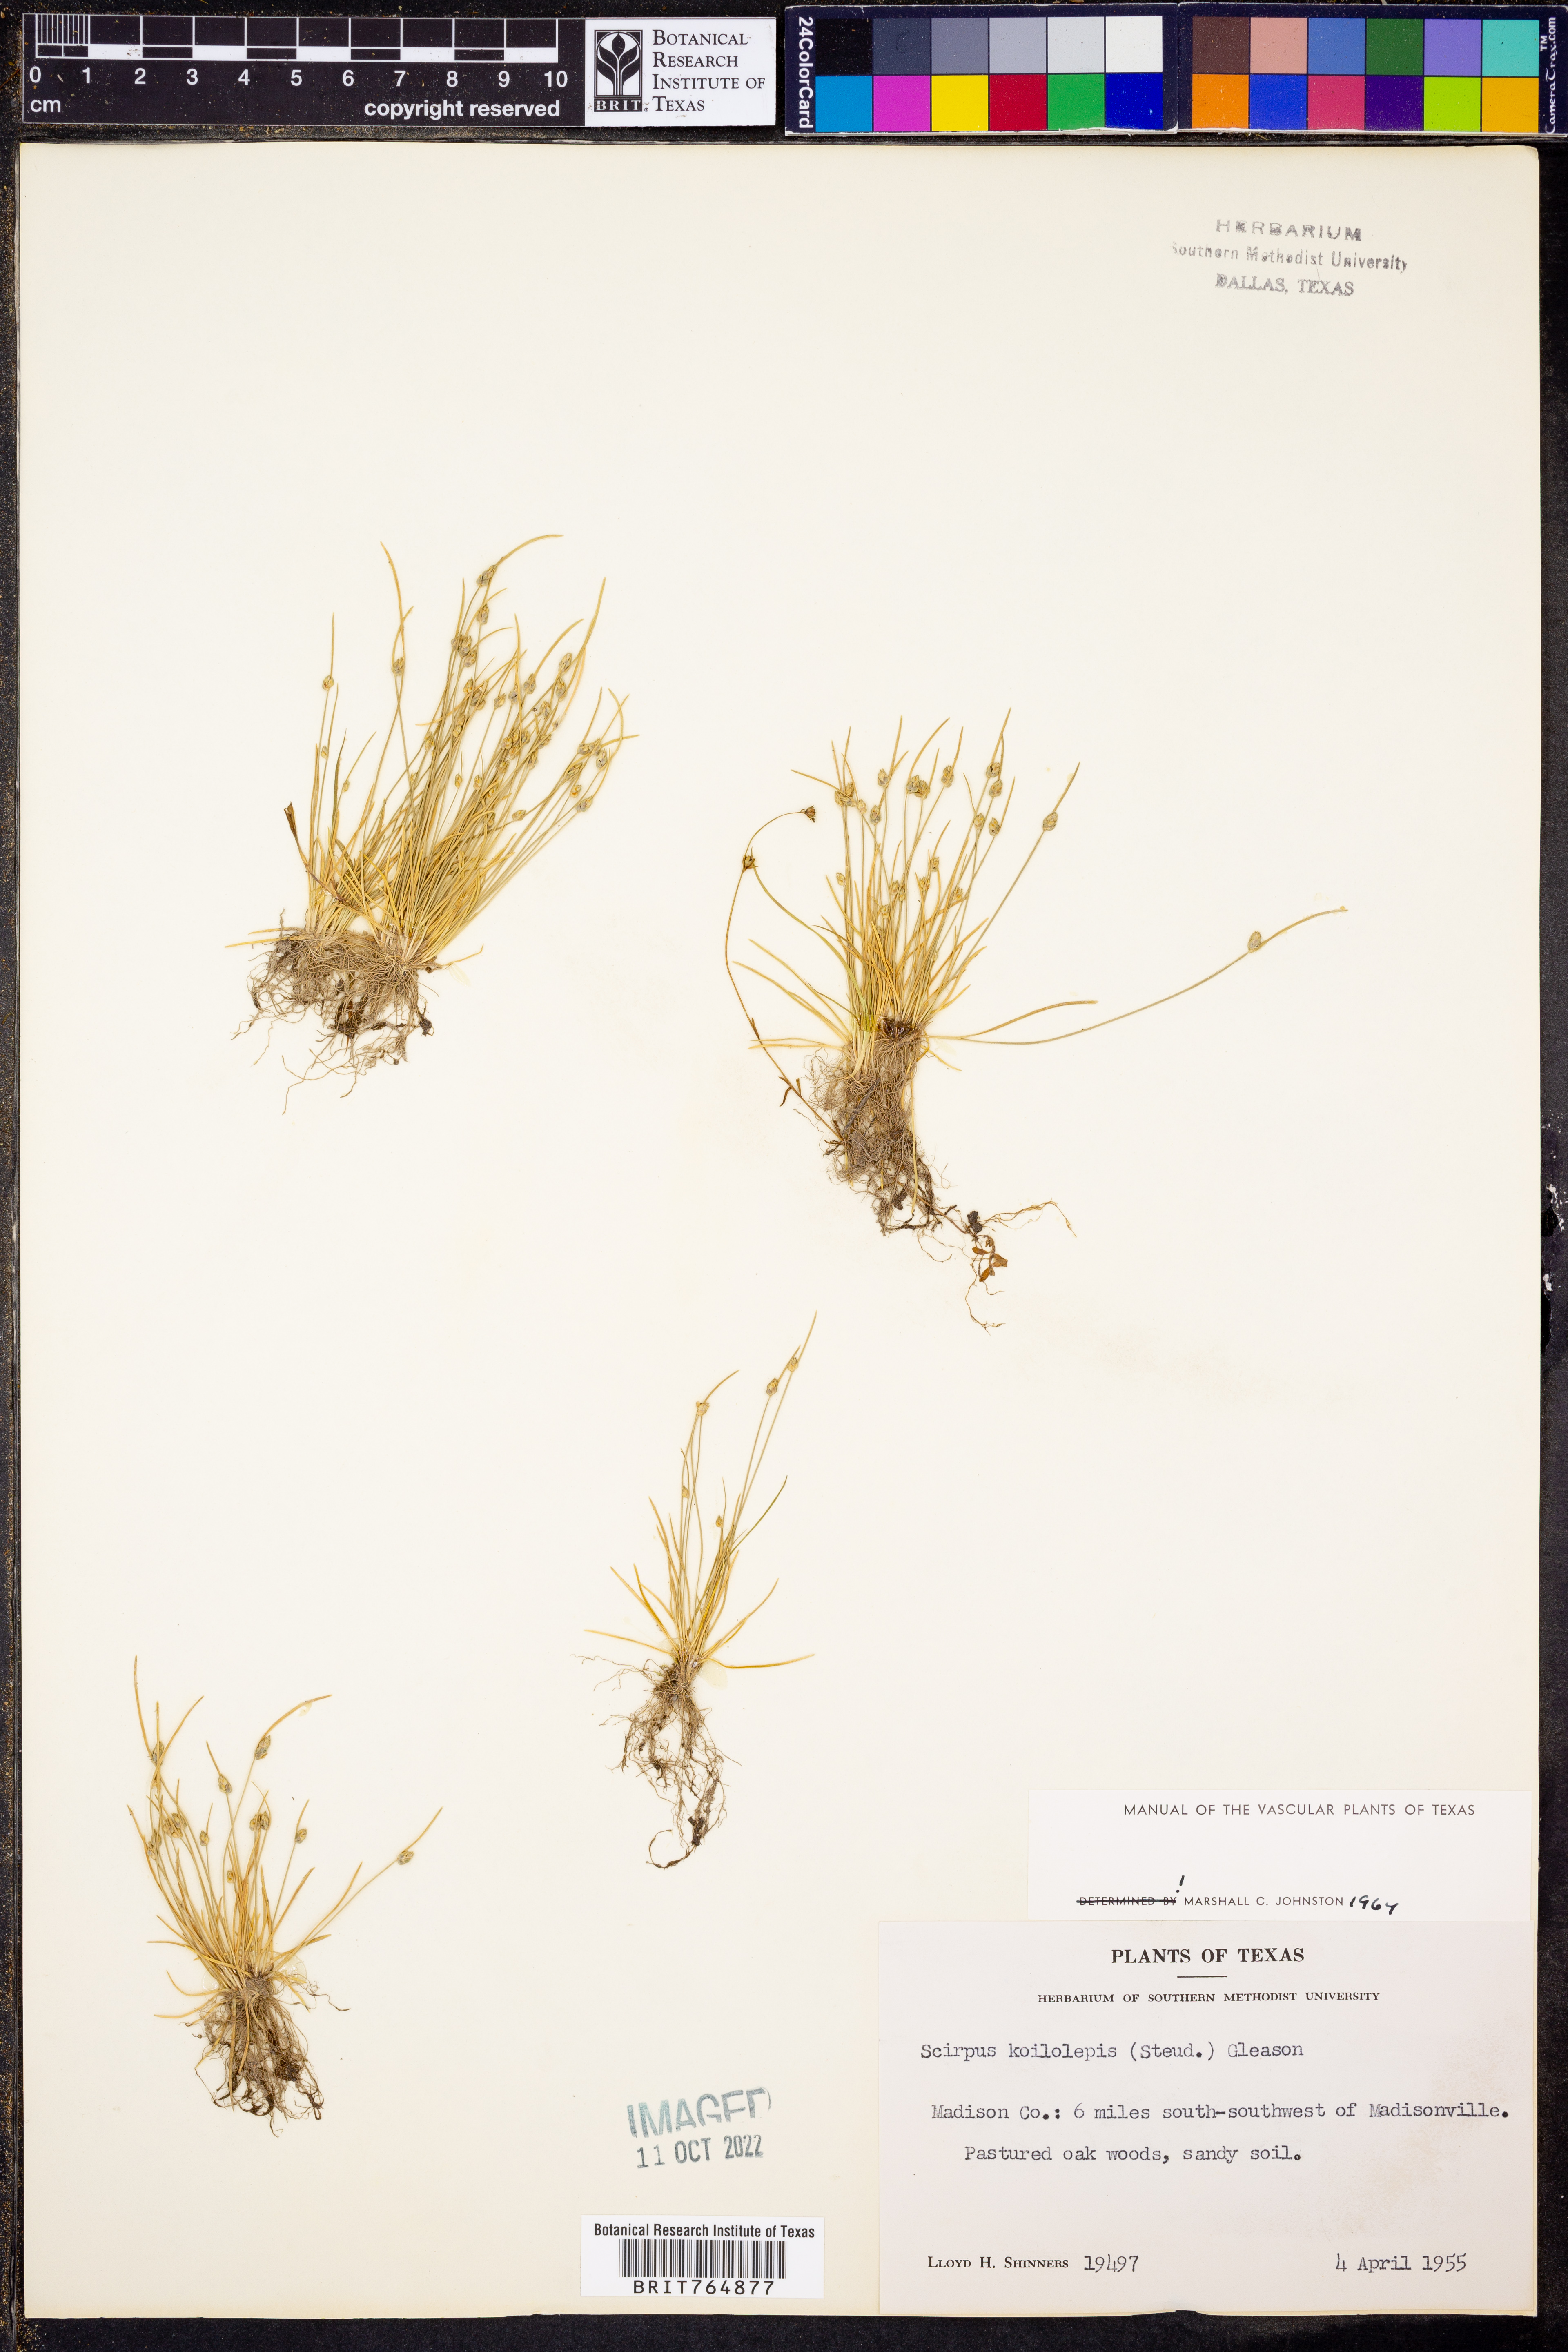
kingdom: Plantae
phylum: Tracheophyta
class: Liliopsida
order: Poales
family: Cyperaceae
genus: Isolepis
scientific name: Isolepis carinata
